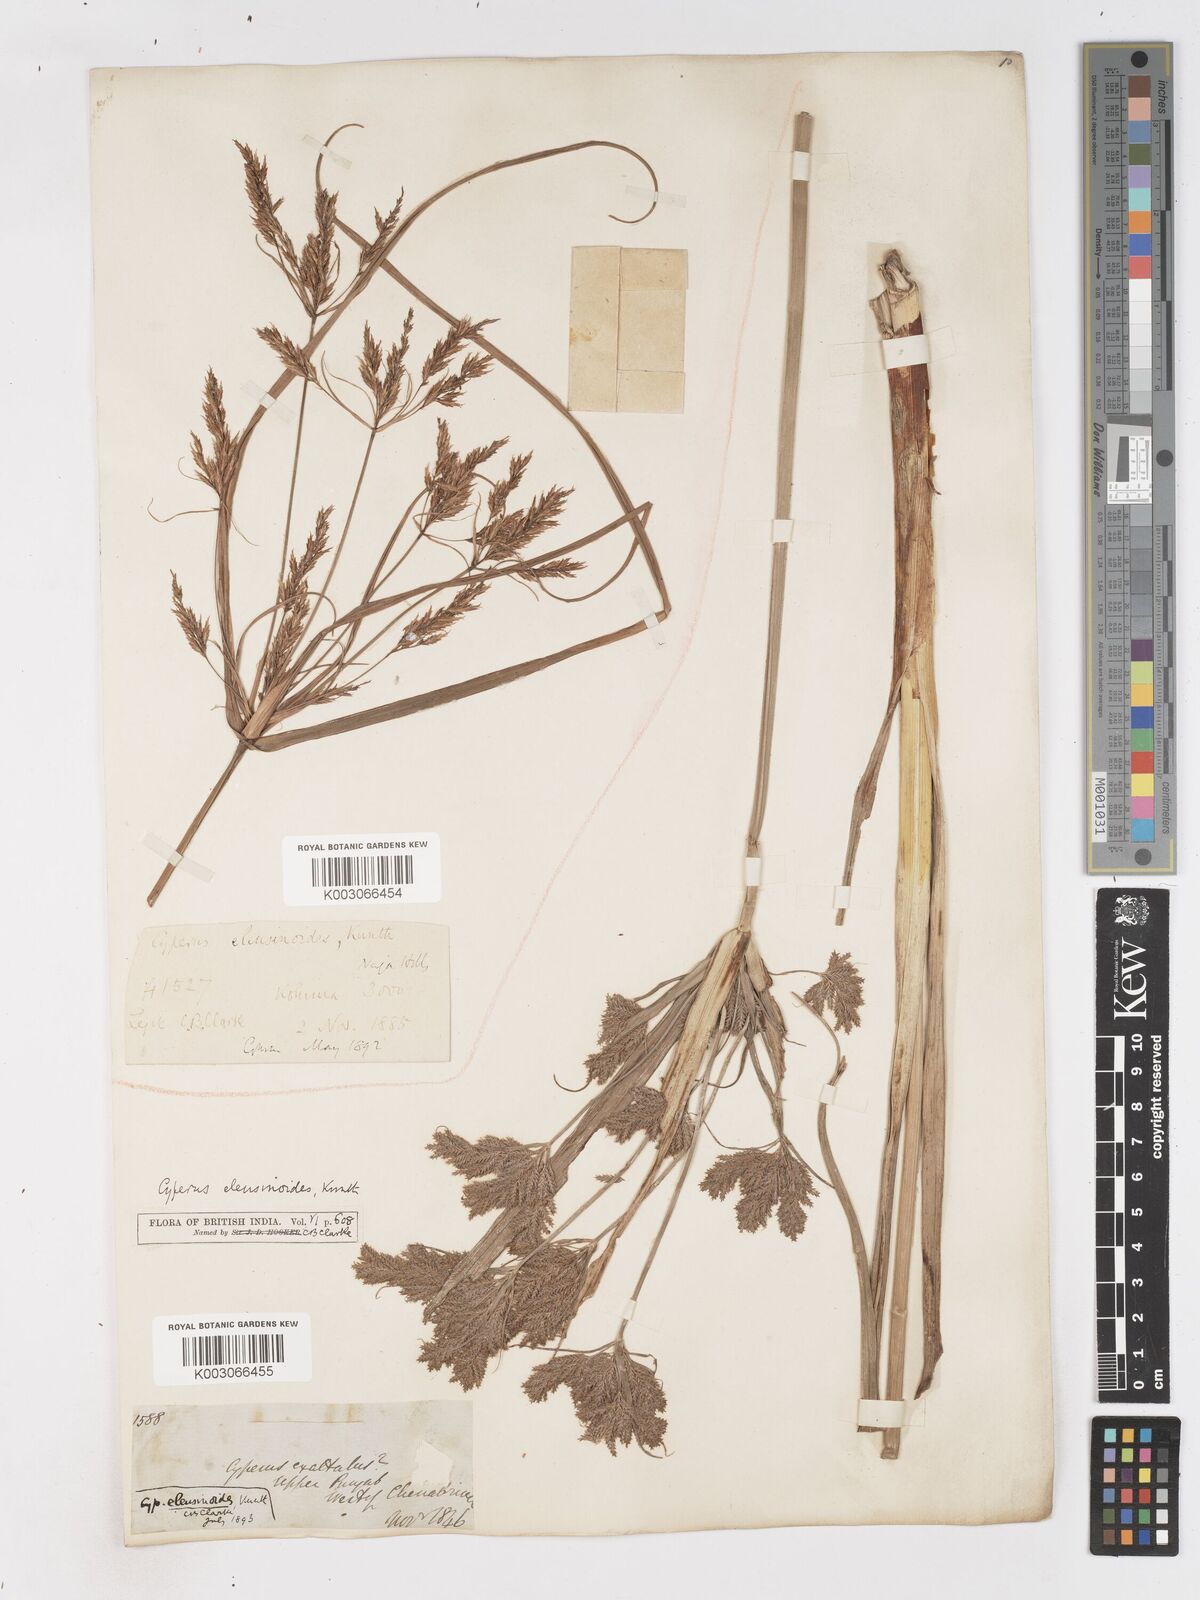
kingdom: Plantae
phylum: Tracheophyta
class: Liliopsida
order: Poales
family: Cyperaceae
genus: Cyperus
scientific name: Cyperus nutans
